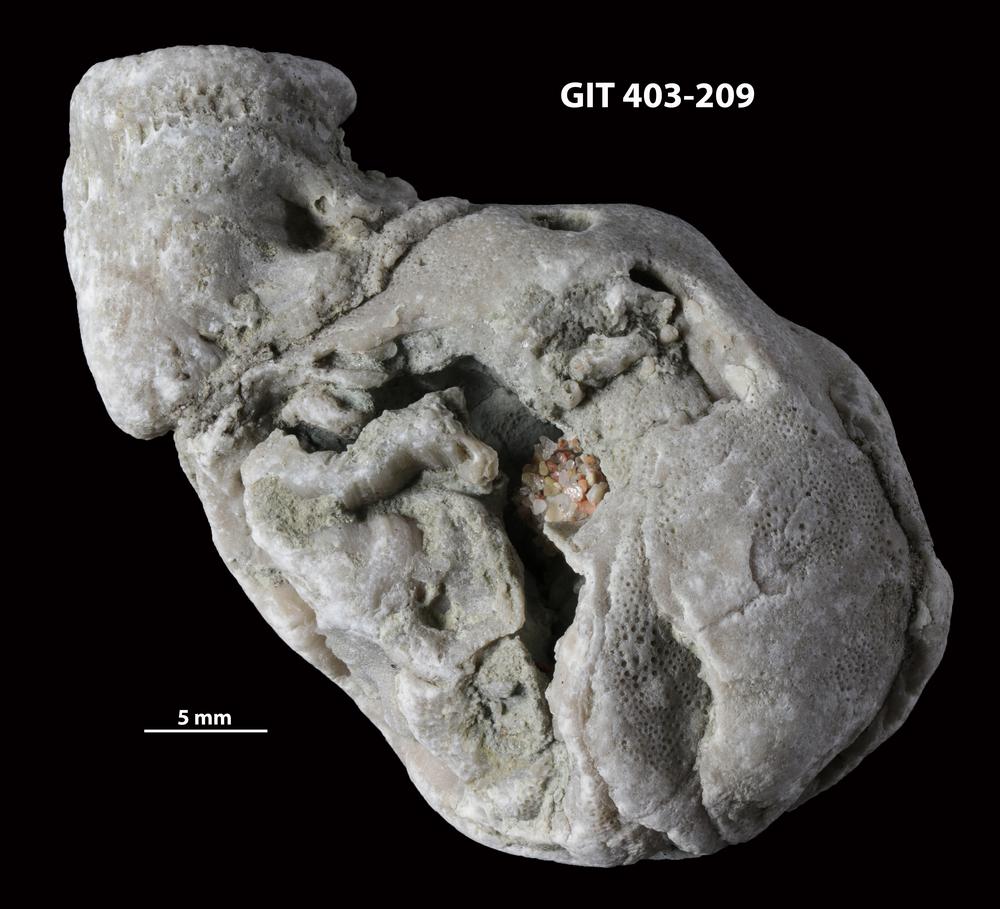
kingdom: Animalia
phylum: Bryozoa
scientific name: Bryozoa
